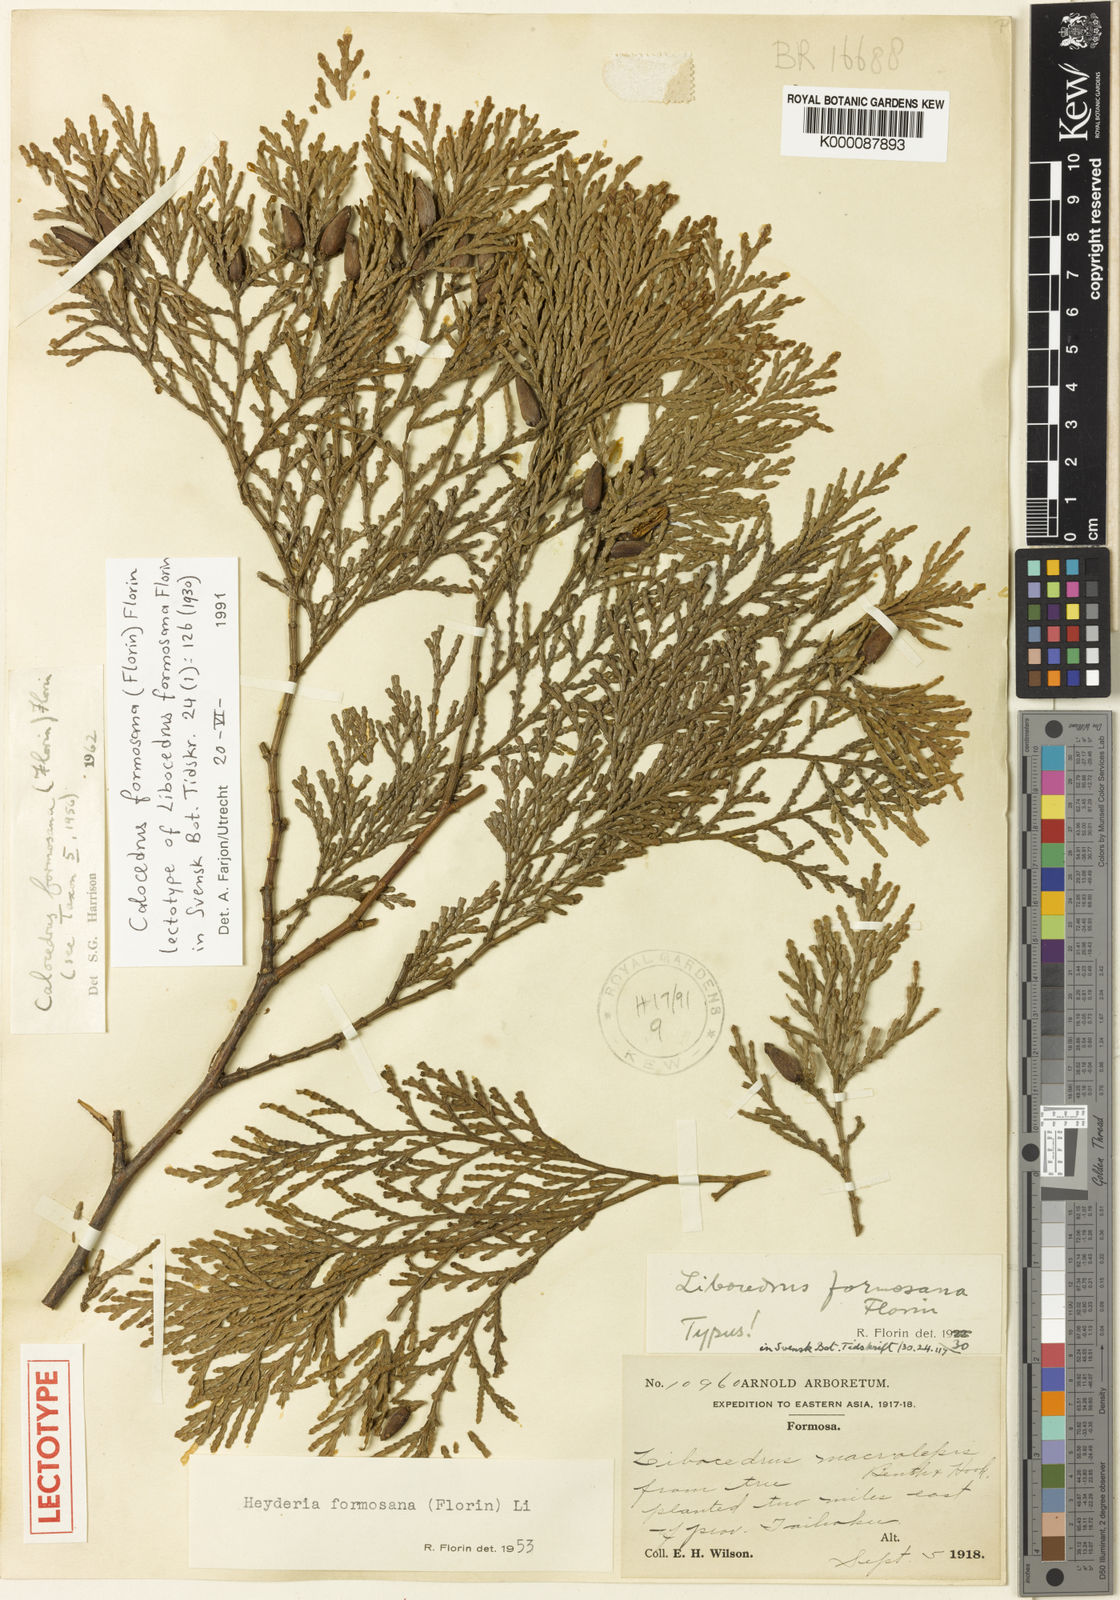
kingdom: Plantae
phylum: Tracheophyta
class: Pinopsida
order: Pinales
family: Cupressaceae
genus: Calocedrus
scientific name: Calocedrus formosana
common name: Taiwan incense-cedar
